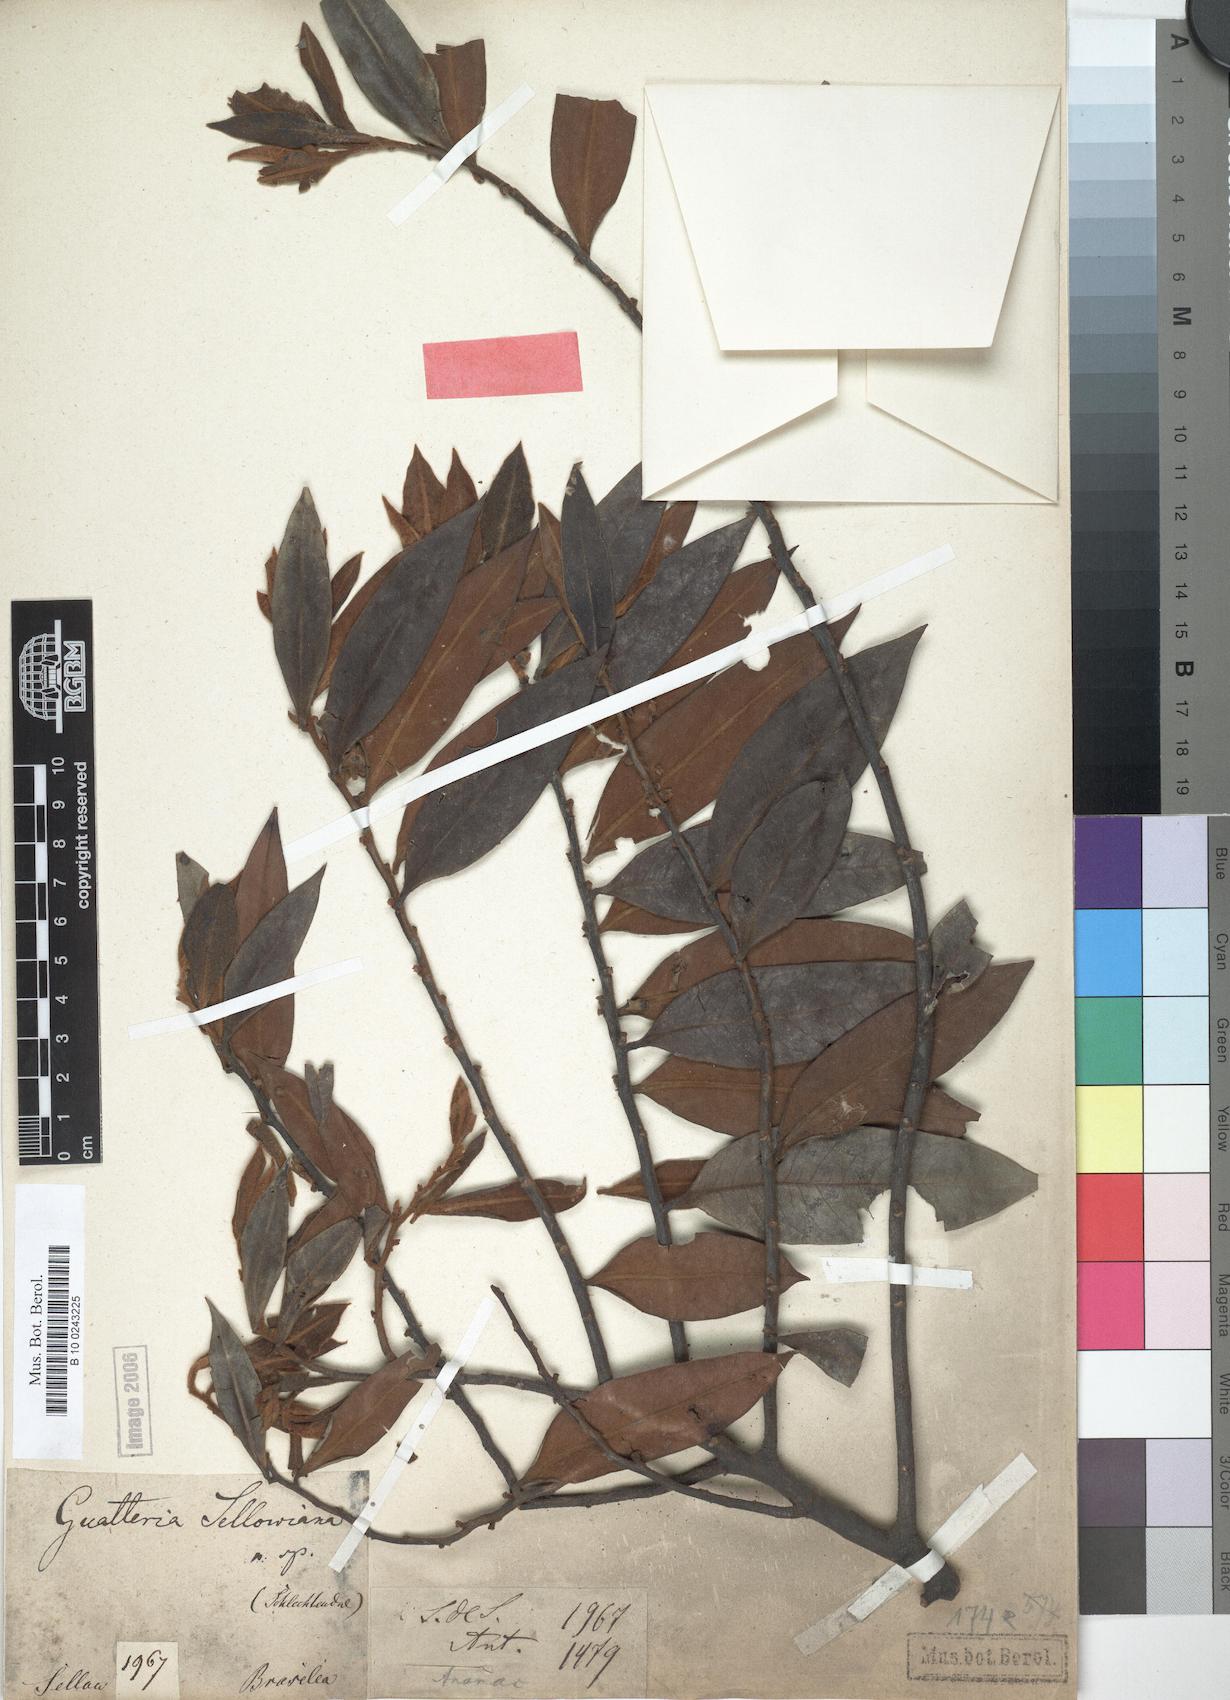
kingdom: Plantae
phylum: Tracheophyta
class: Magnoliopsida
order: Magnoliales
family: Annonaceae
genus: Guatteria
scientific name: Guatteria sellowiana
